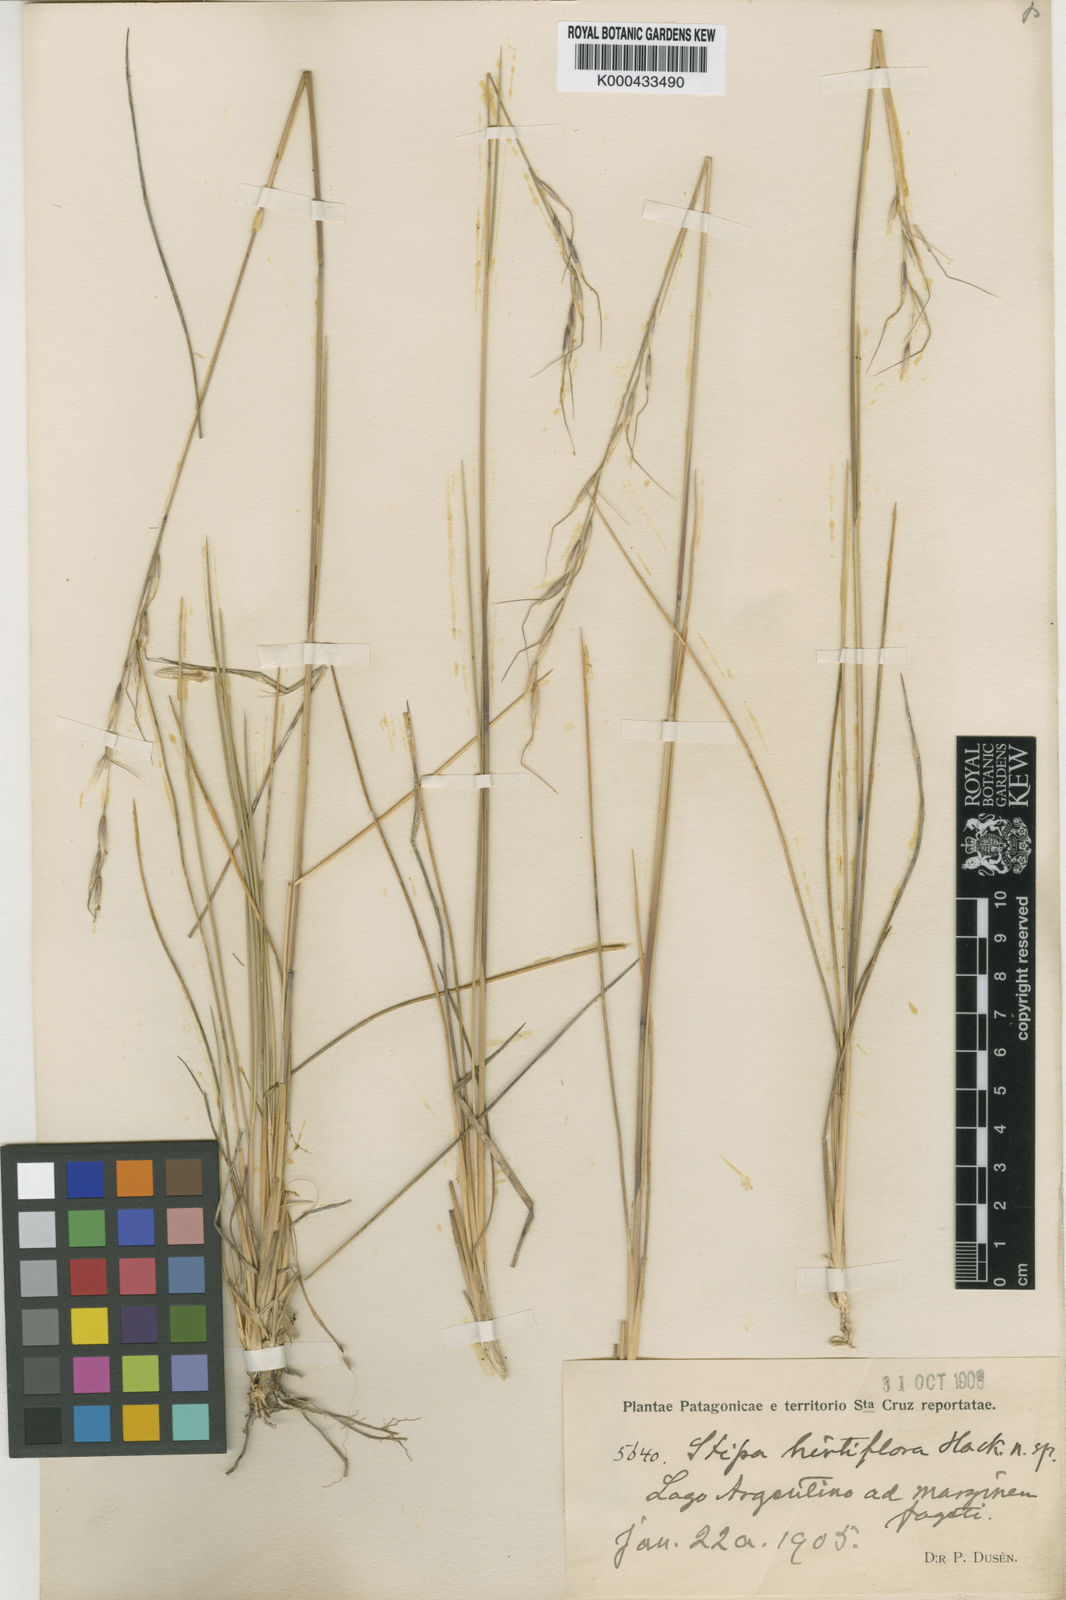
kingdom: Plantae
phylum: Tracheophyta
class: Liliopsida
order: Poales
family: Poaceae
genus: Amelichloa
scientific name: Amelichloa brevipes
